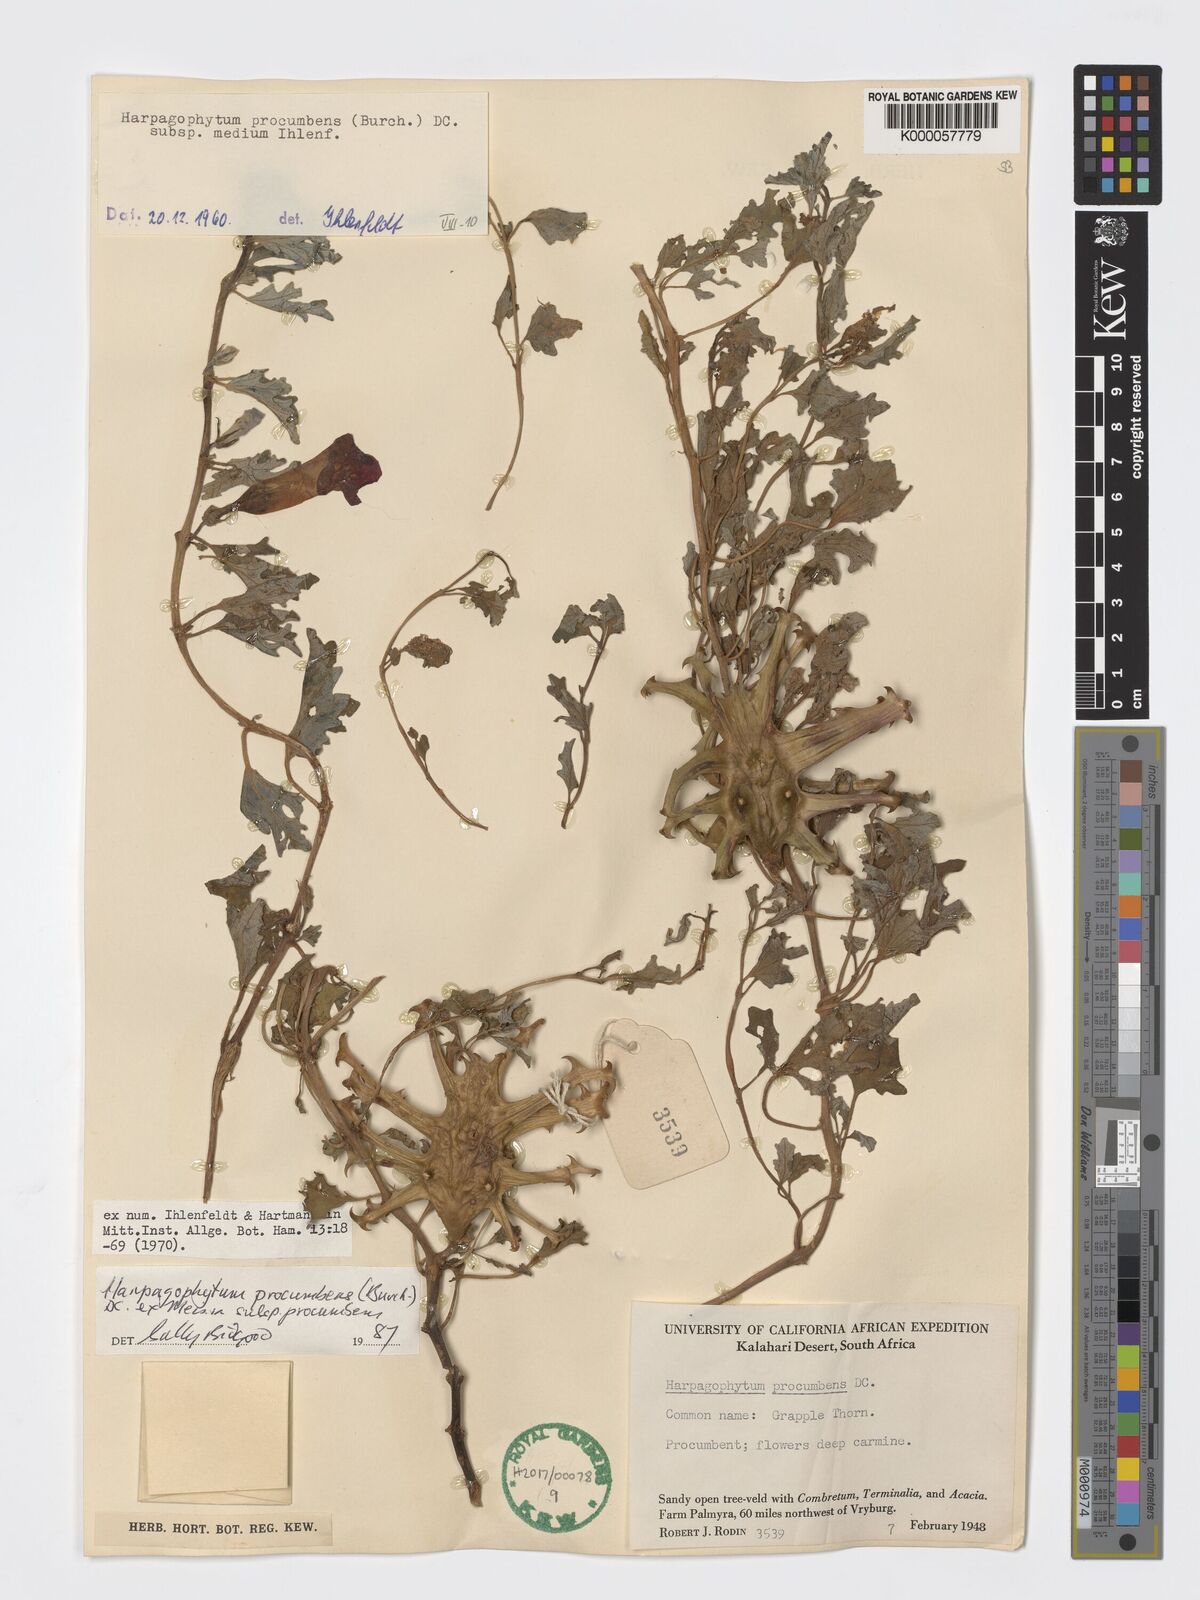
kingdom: Plantae
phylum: Tracheophyta
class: Magnoliopsida
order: Lamiales
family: Pedaliaceae
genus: Harpagophytum
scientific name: Harpagophytum procumbens
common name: Grappleplant
